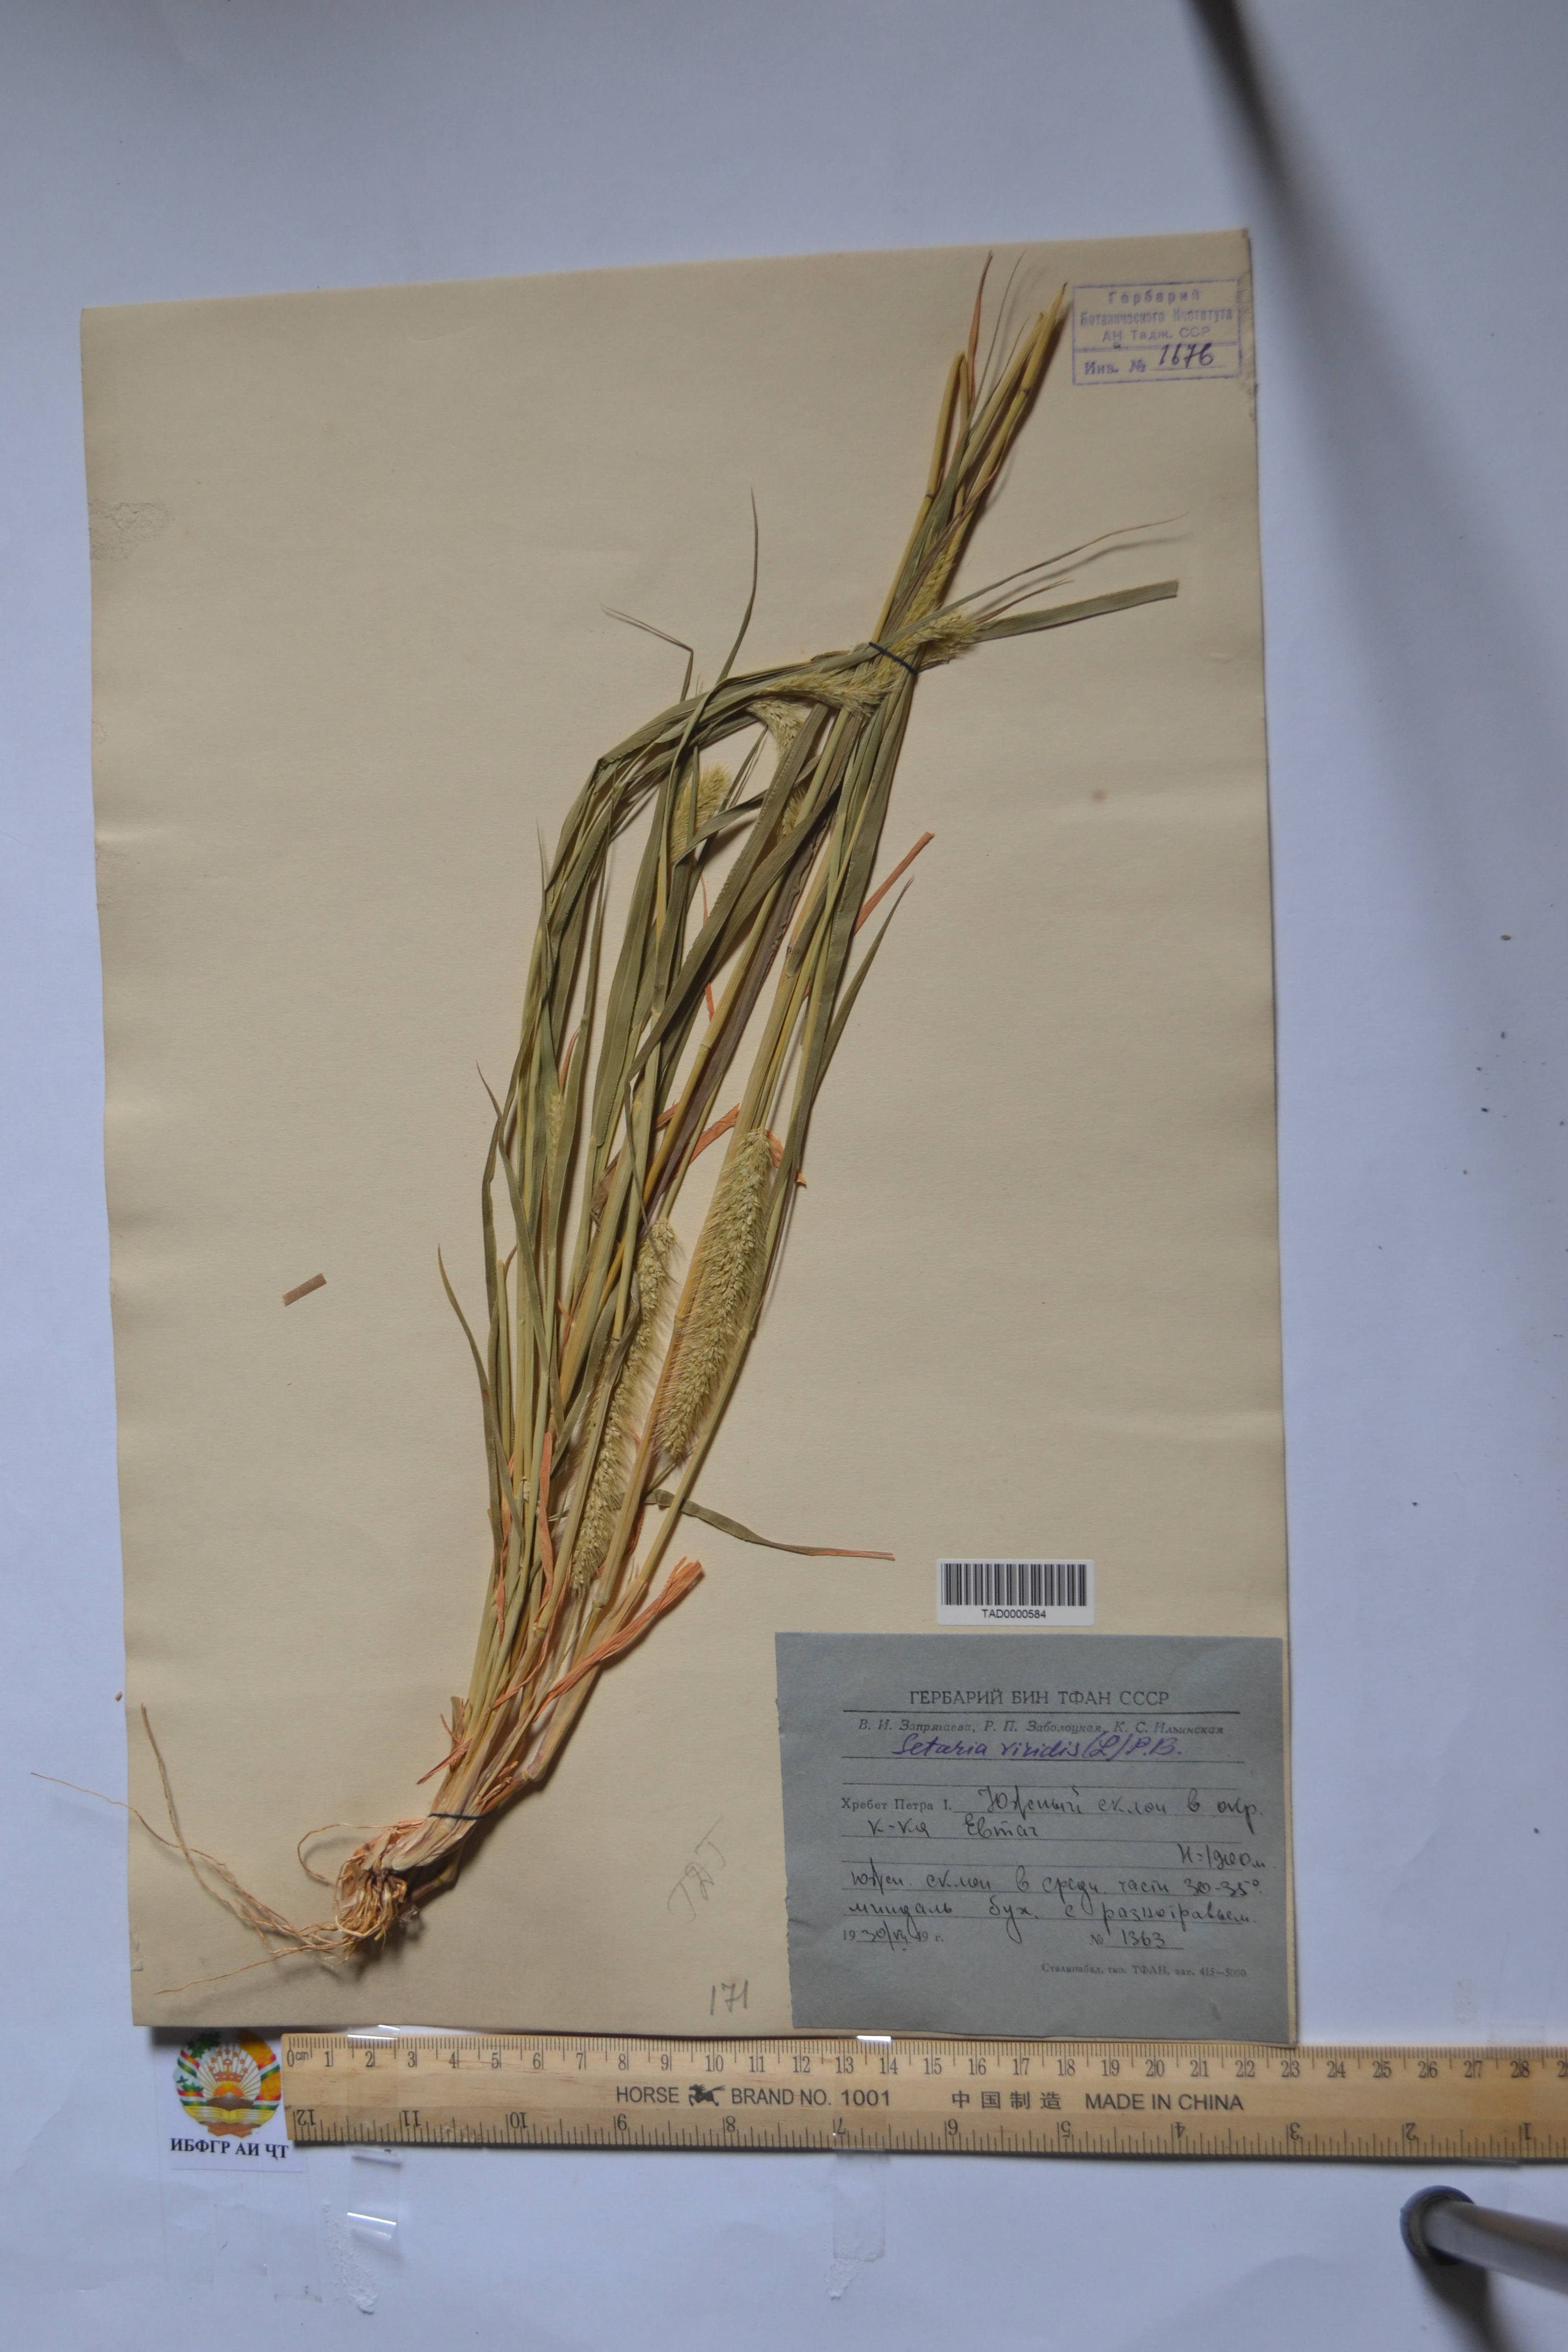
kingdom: Plantae
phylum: Tracheophyta
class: Liliopsida
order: Poales
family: Poaceae
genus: Setaria
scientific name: Setaria viridis
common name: Green bristlegrass
